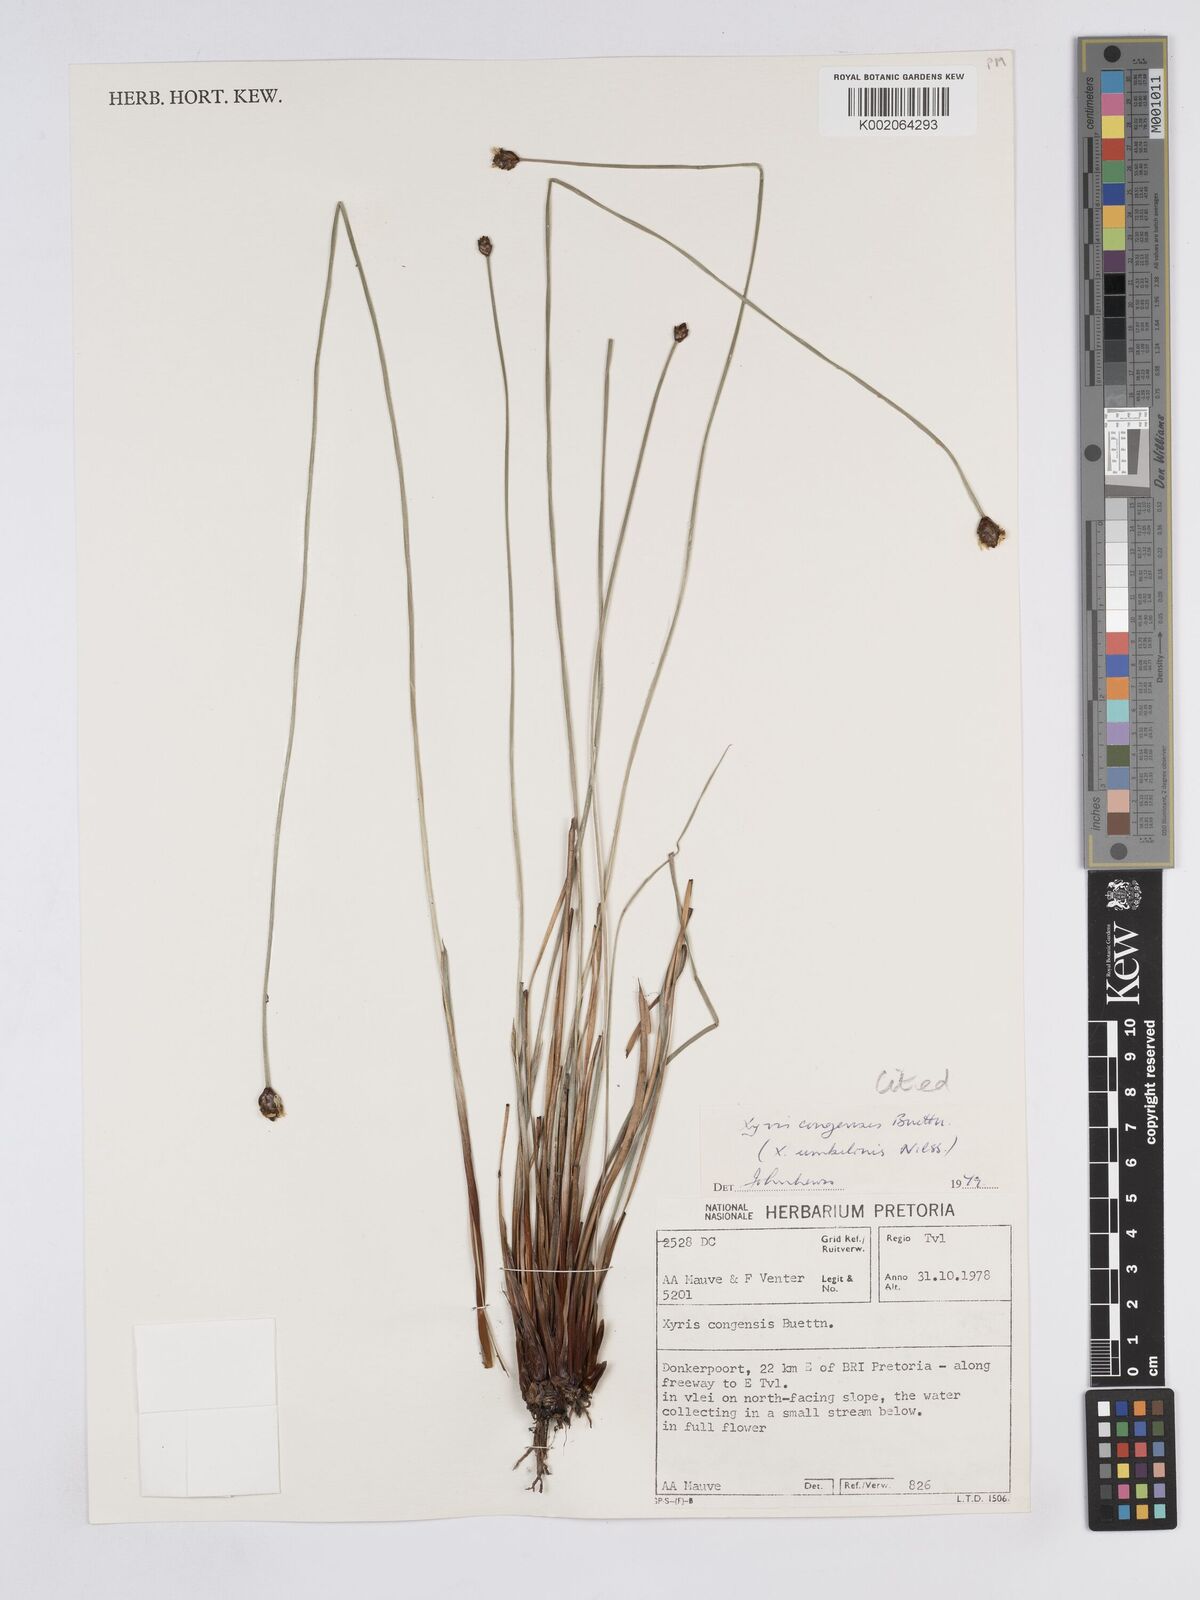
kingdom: Plantae
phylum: Tracheophyta
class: Liliopsida
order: Poales
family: Xyridaceae
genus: Xyris
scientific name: Xyris congensis
